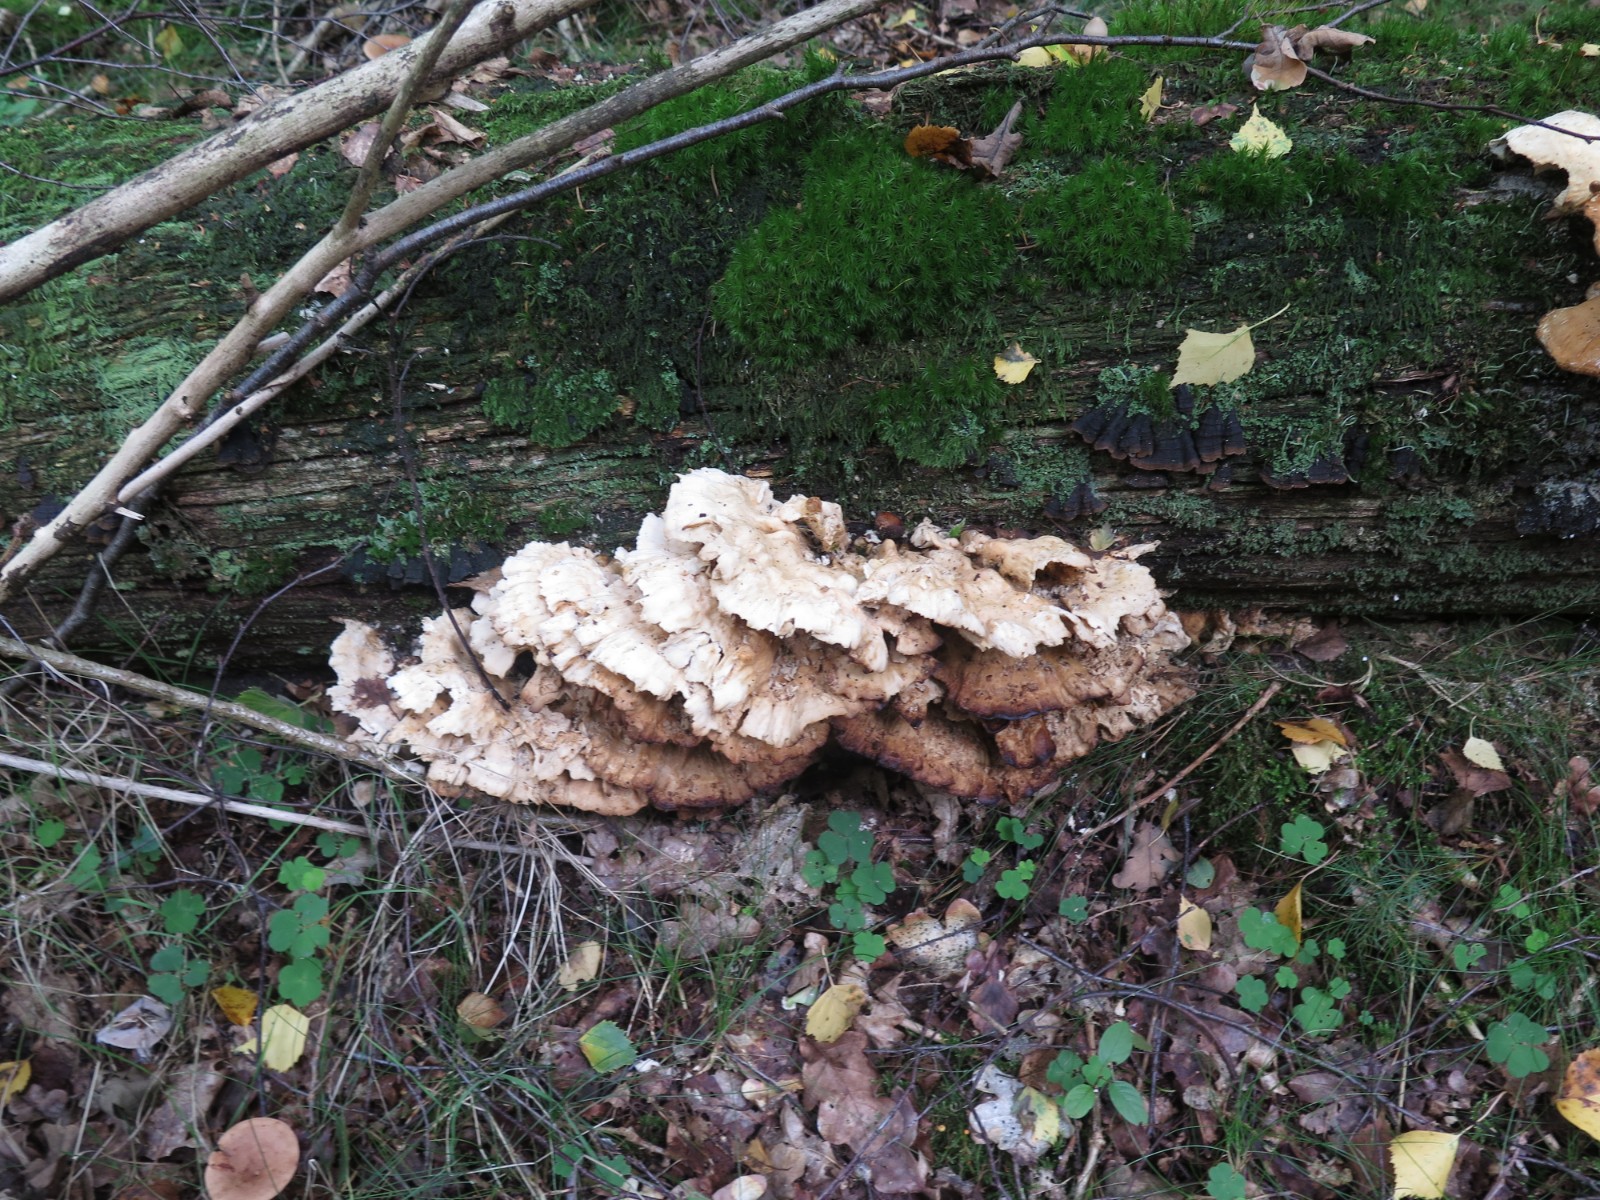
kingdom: Fungi
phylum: Basidiomycota
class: Agaricomycetes
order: Polyporales
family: Laetiporaceae
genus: Laetiporus
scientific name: Laetiporus sulphureus
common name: svovlporesvamp
